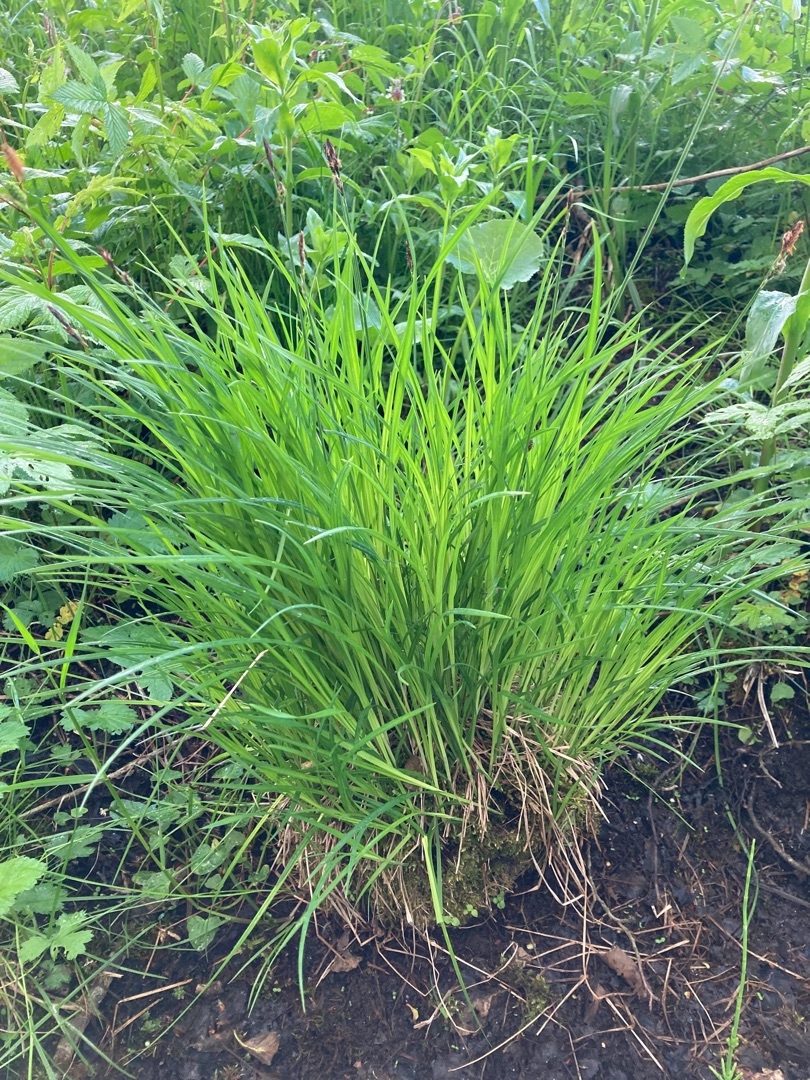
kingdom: Plantae
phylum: Tracheophyta
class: Liliopsida
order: Poales
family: Cyperaceae
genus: Carex
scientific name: Carex cespitosa
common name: Tue-star
